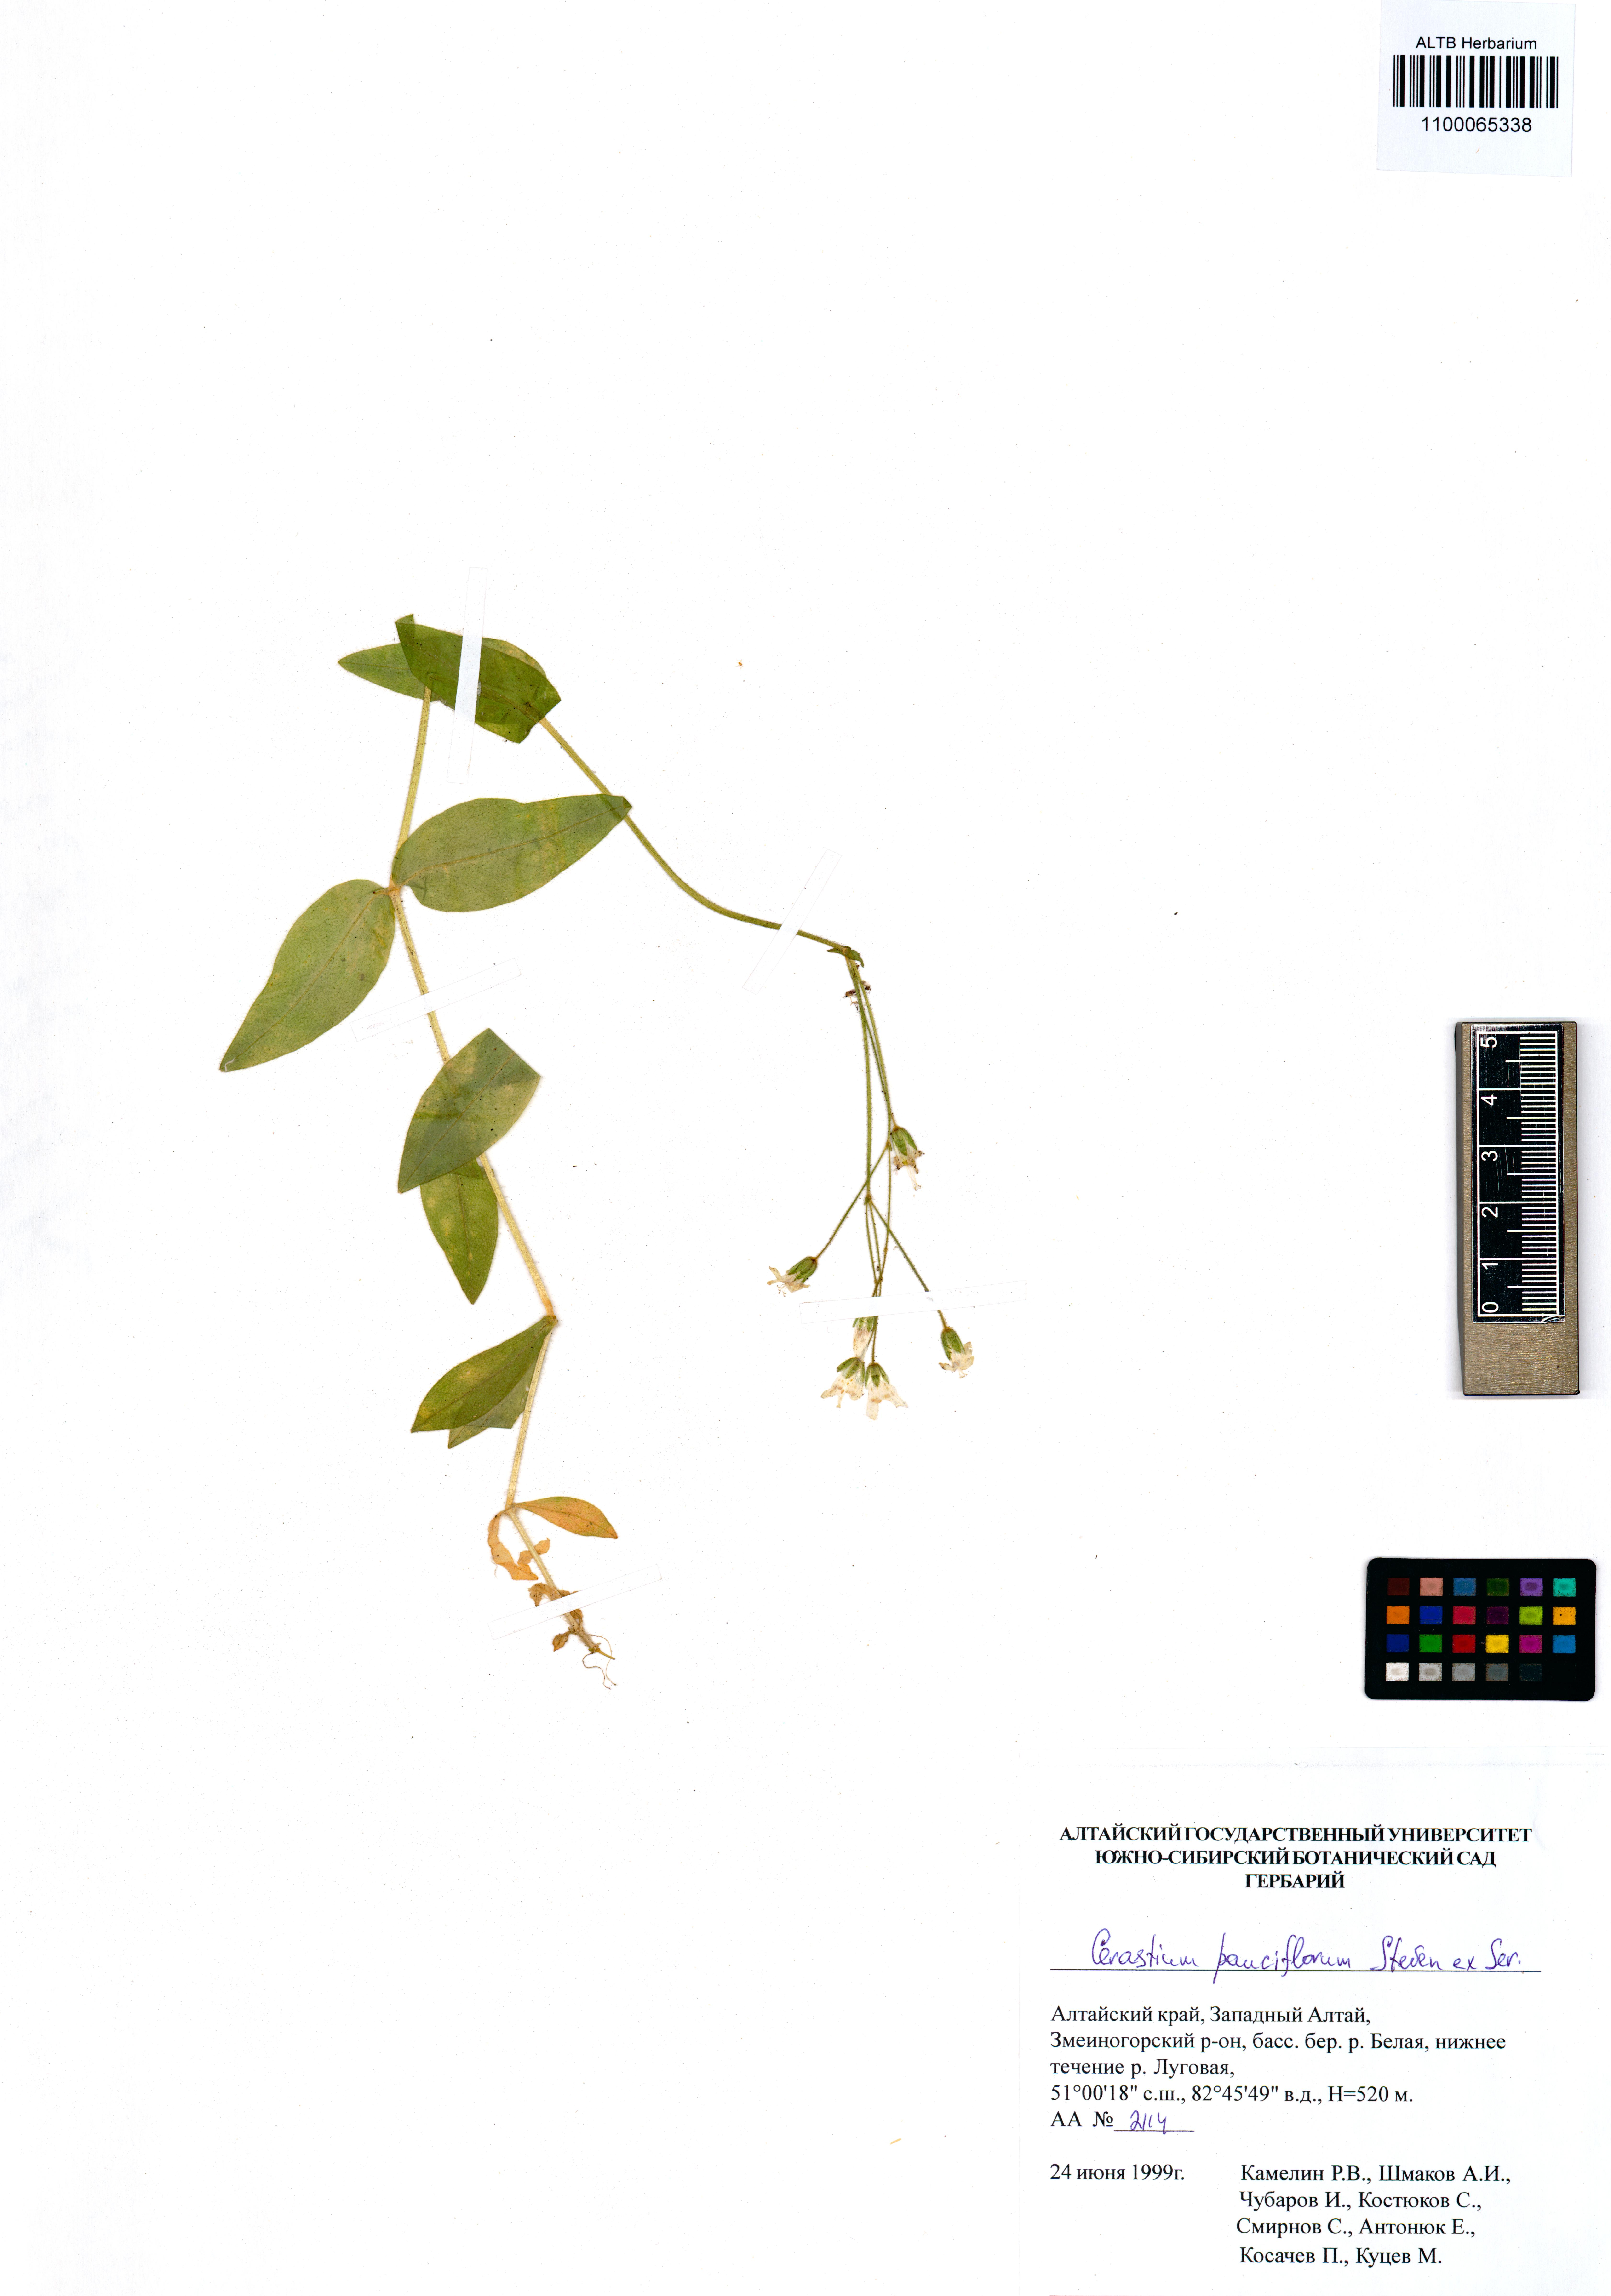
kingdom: Plantae
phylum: Tracheophyta
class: Magnoliopsida
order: Caryophyllales
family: Caryophyllaceae
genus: Cerastium
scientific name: Cerastium pauciflorum
